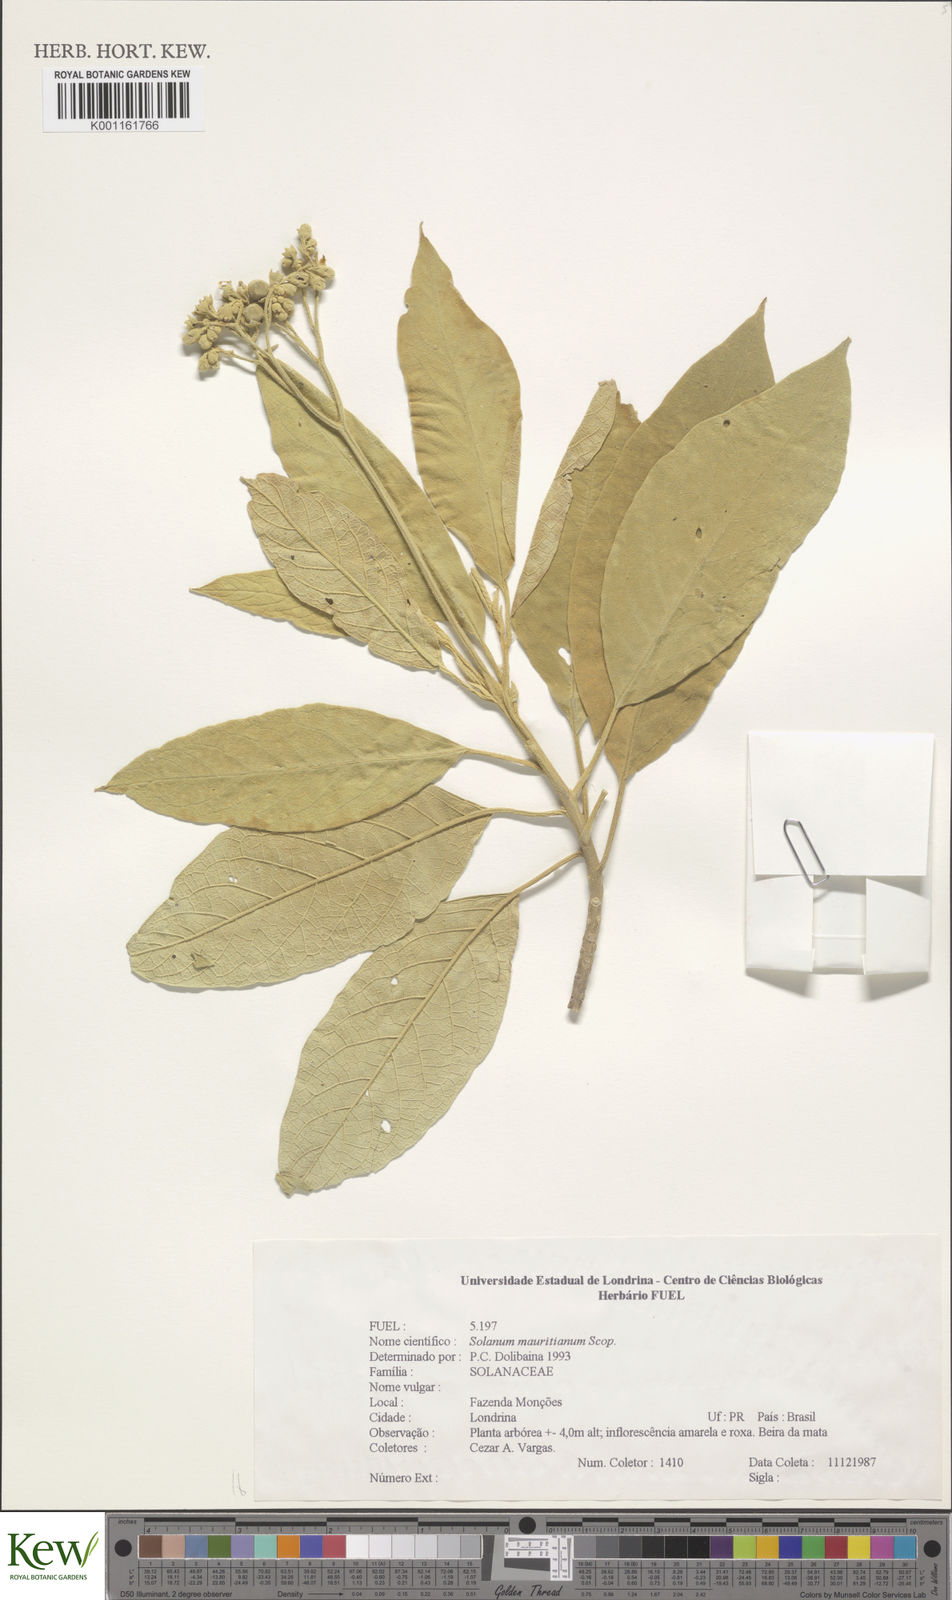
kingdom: Plantae
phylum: Tracheophyta
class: Magnoliopsida
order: Solanales
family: Solanaceae
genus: Solanum
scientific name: Solanum mauritianum
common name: Earleaf nightshade
